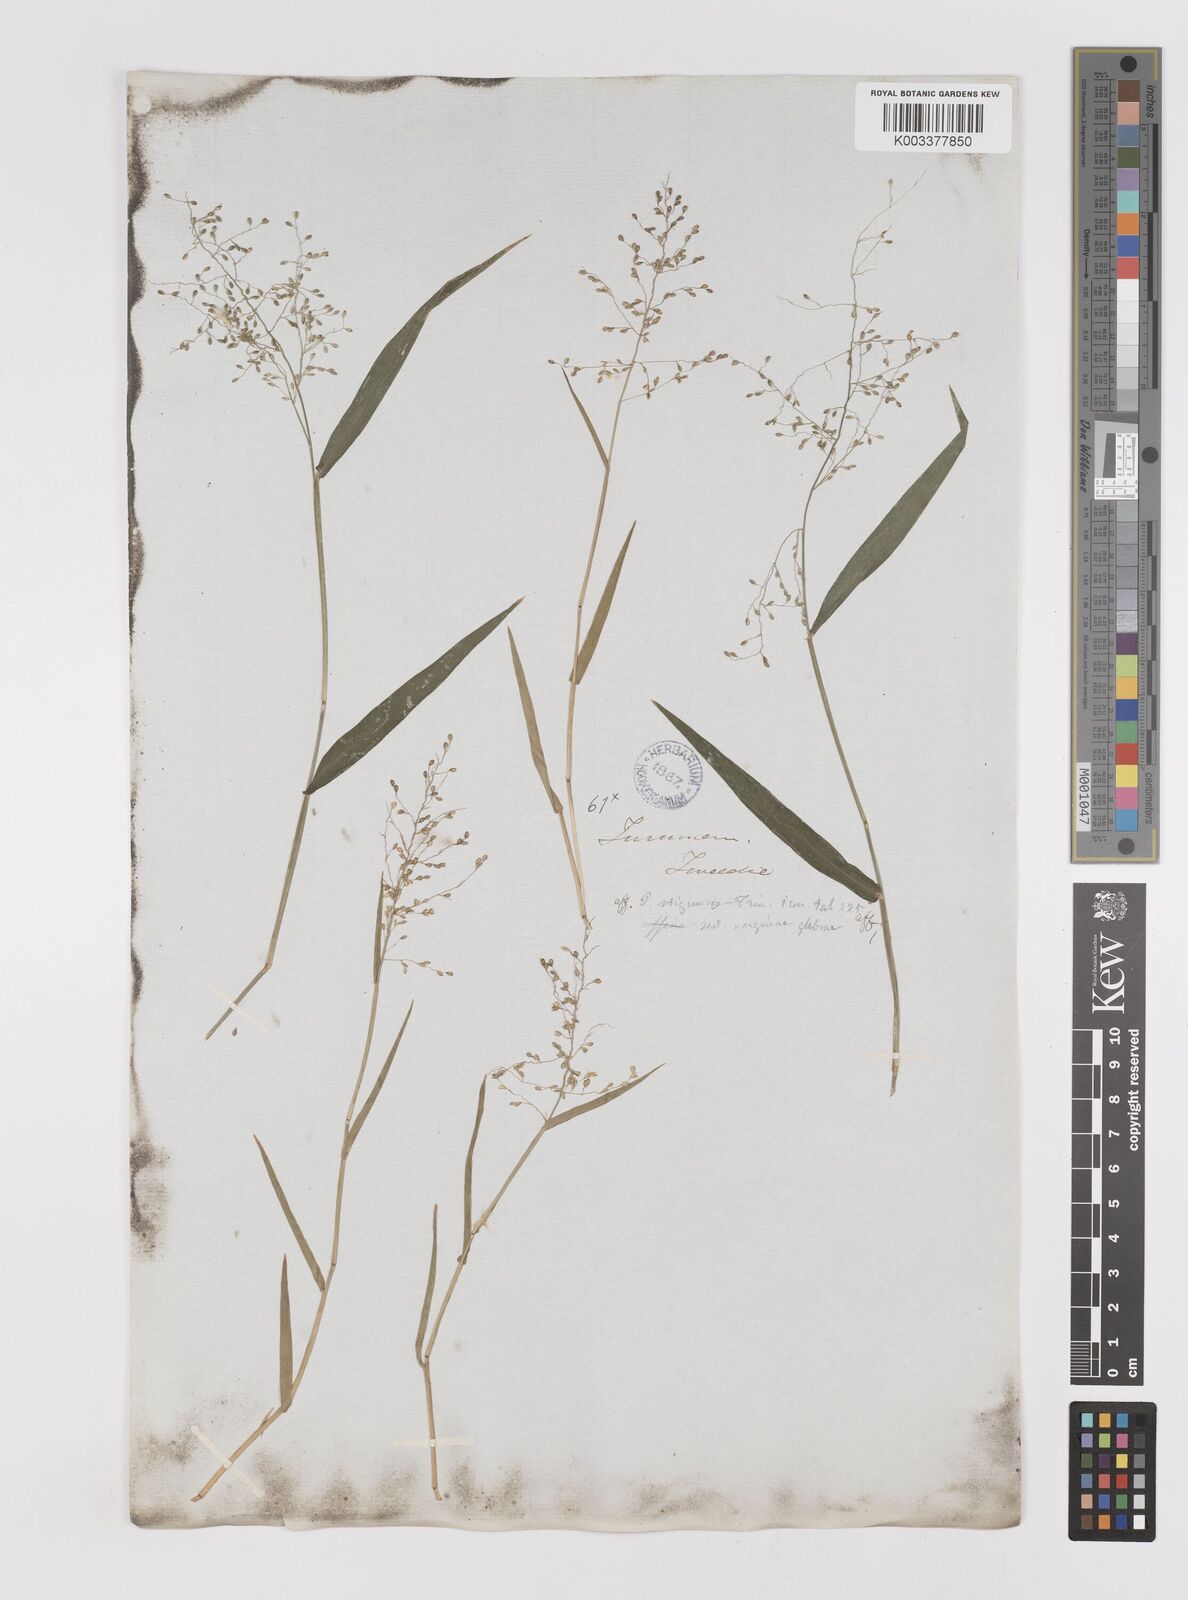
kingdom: Plantae
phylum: Tracheophyta
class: Liliopsida
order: Poales
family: Poaceae
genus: Dichanthelium
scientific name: Dichanthelium stigmosum
